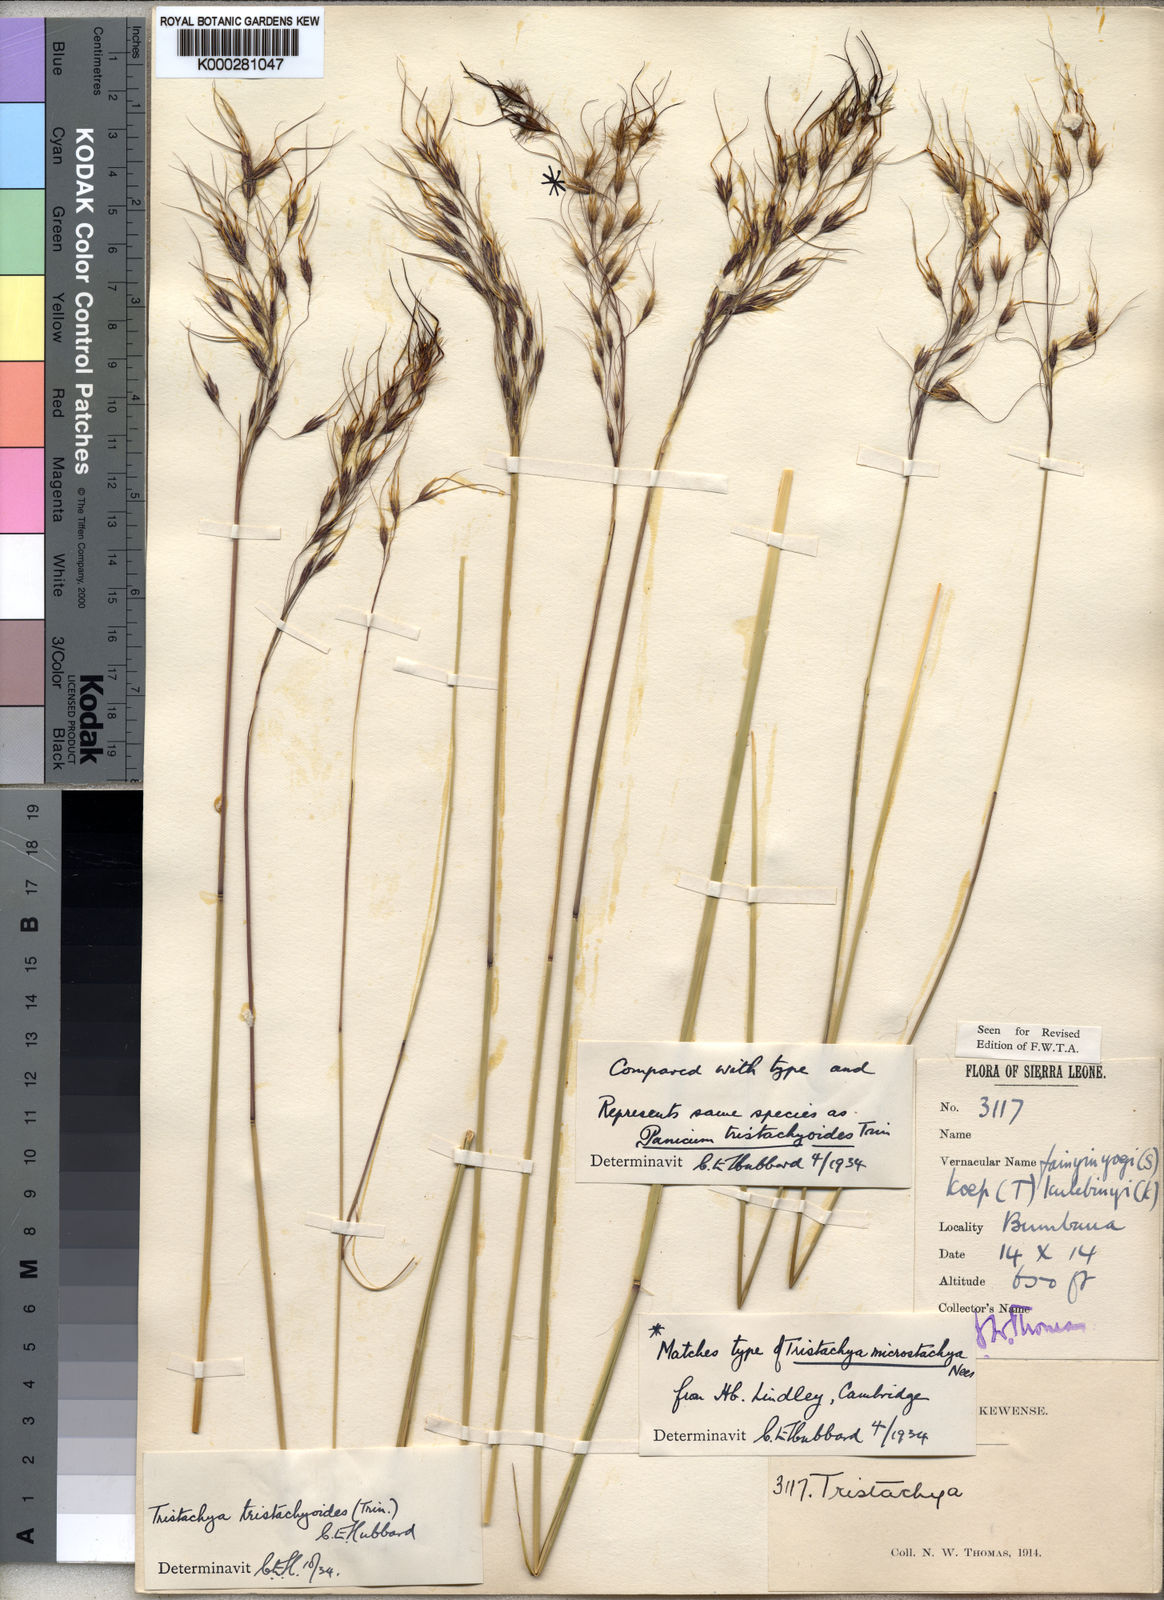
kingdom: Plantae
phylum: Tracheophyta
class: Liliopsida
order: Poales
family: Poaceae
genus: Dilophotriche
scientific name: Dilophotriche
